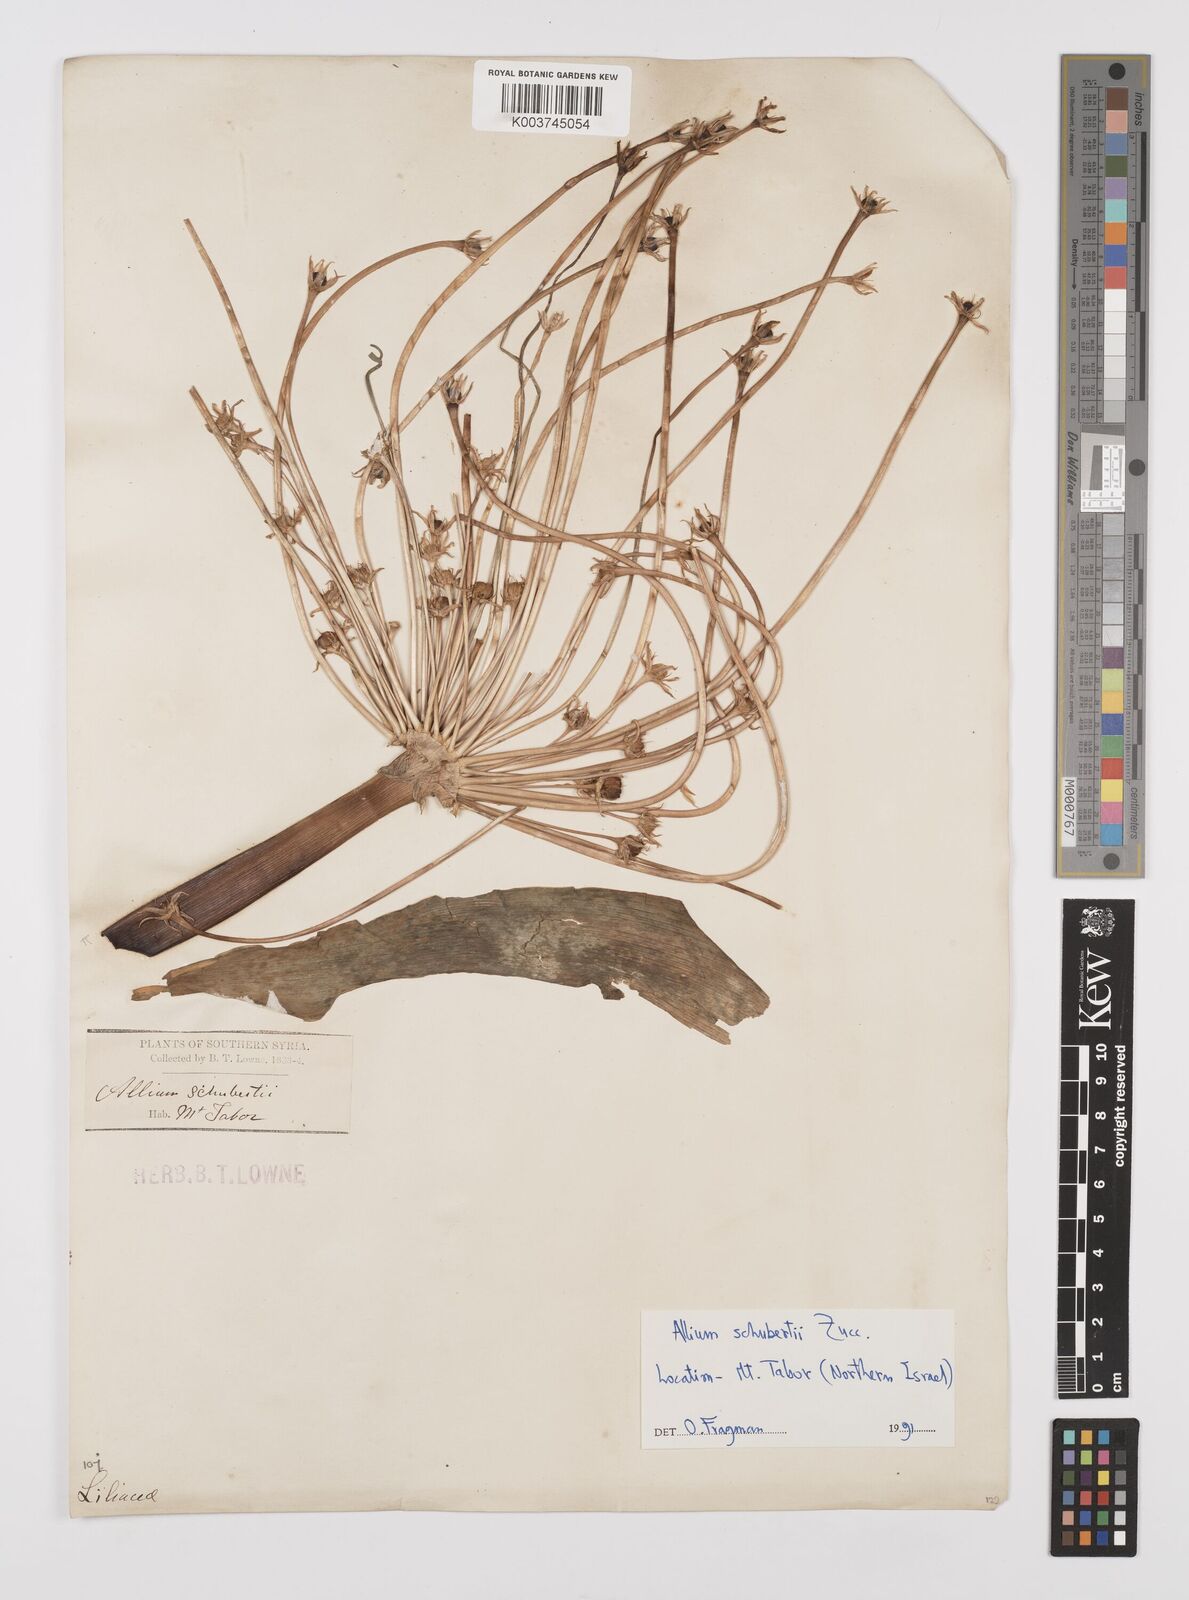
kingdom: Plantae
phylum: Tracheophyta
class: Liliopsida
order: Asparagales
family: Amaryllidaceae
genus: Allium
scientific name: Allium schubertii
